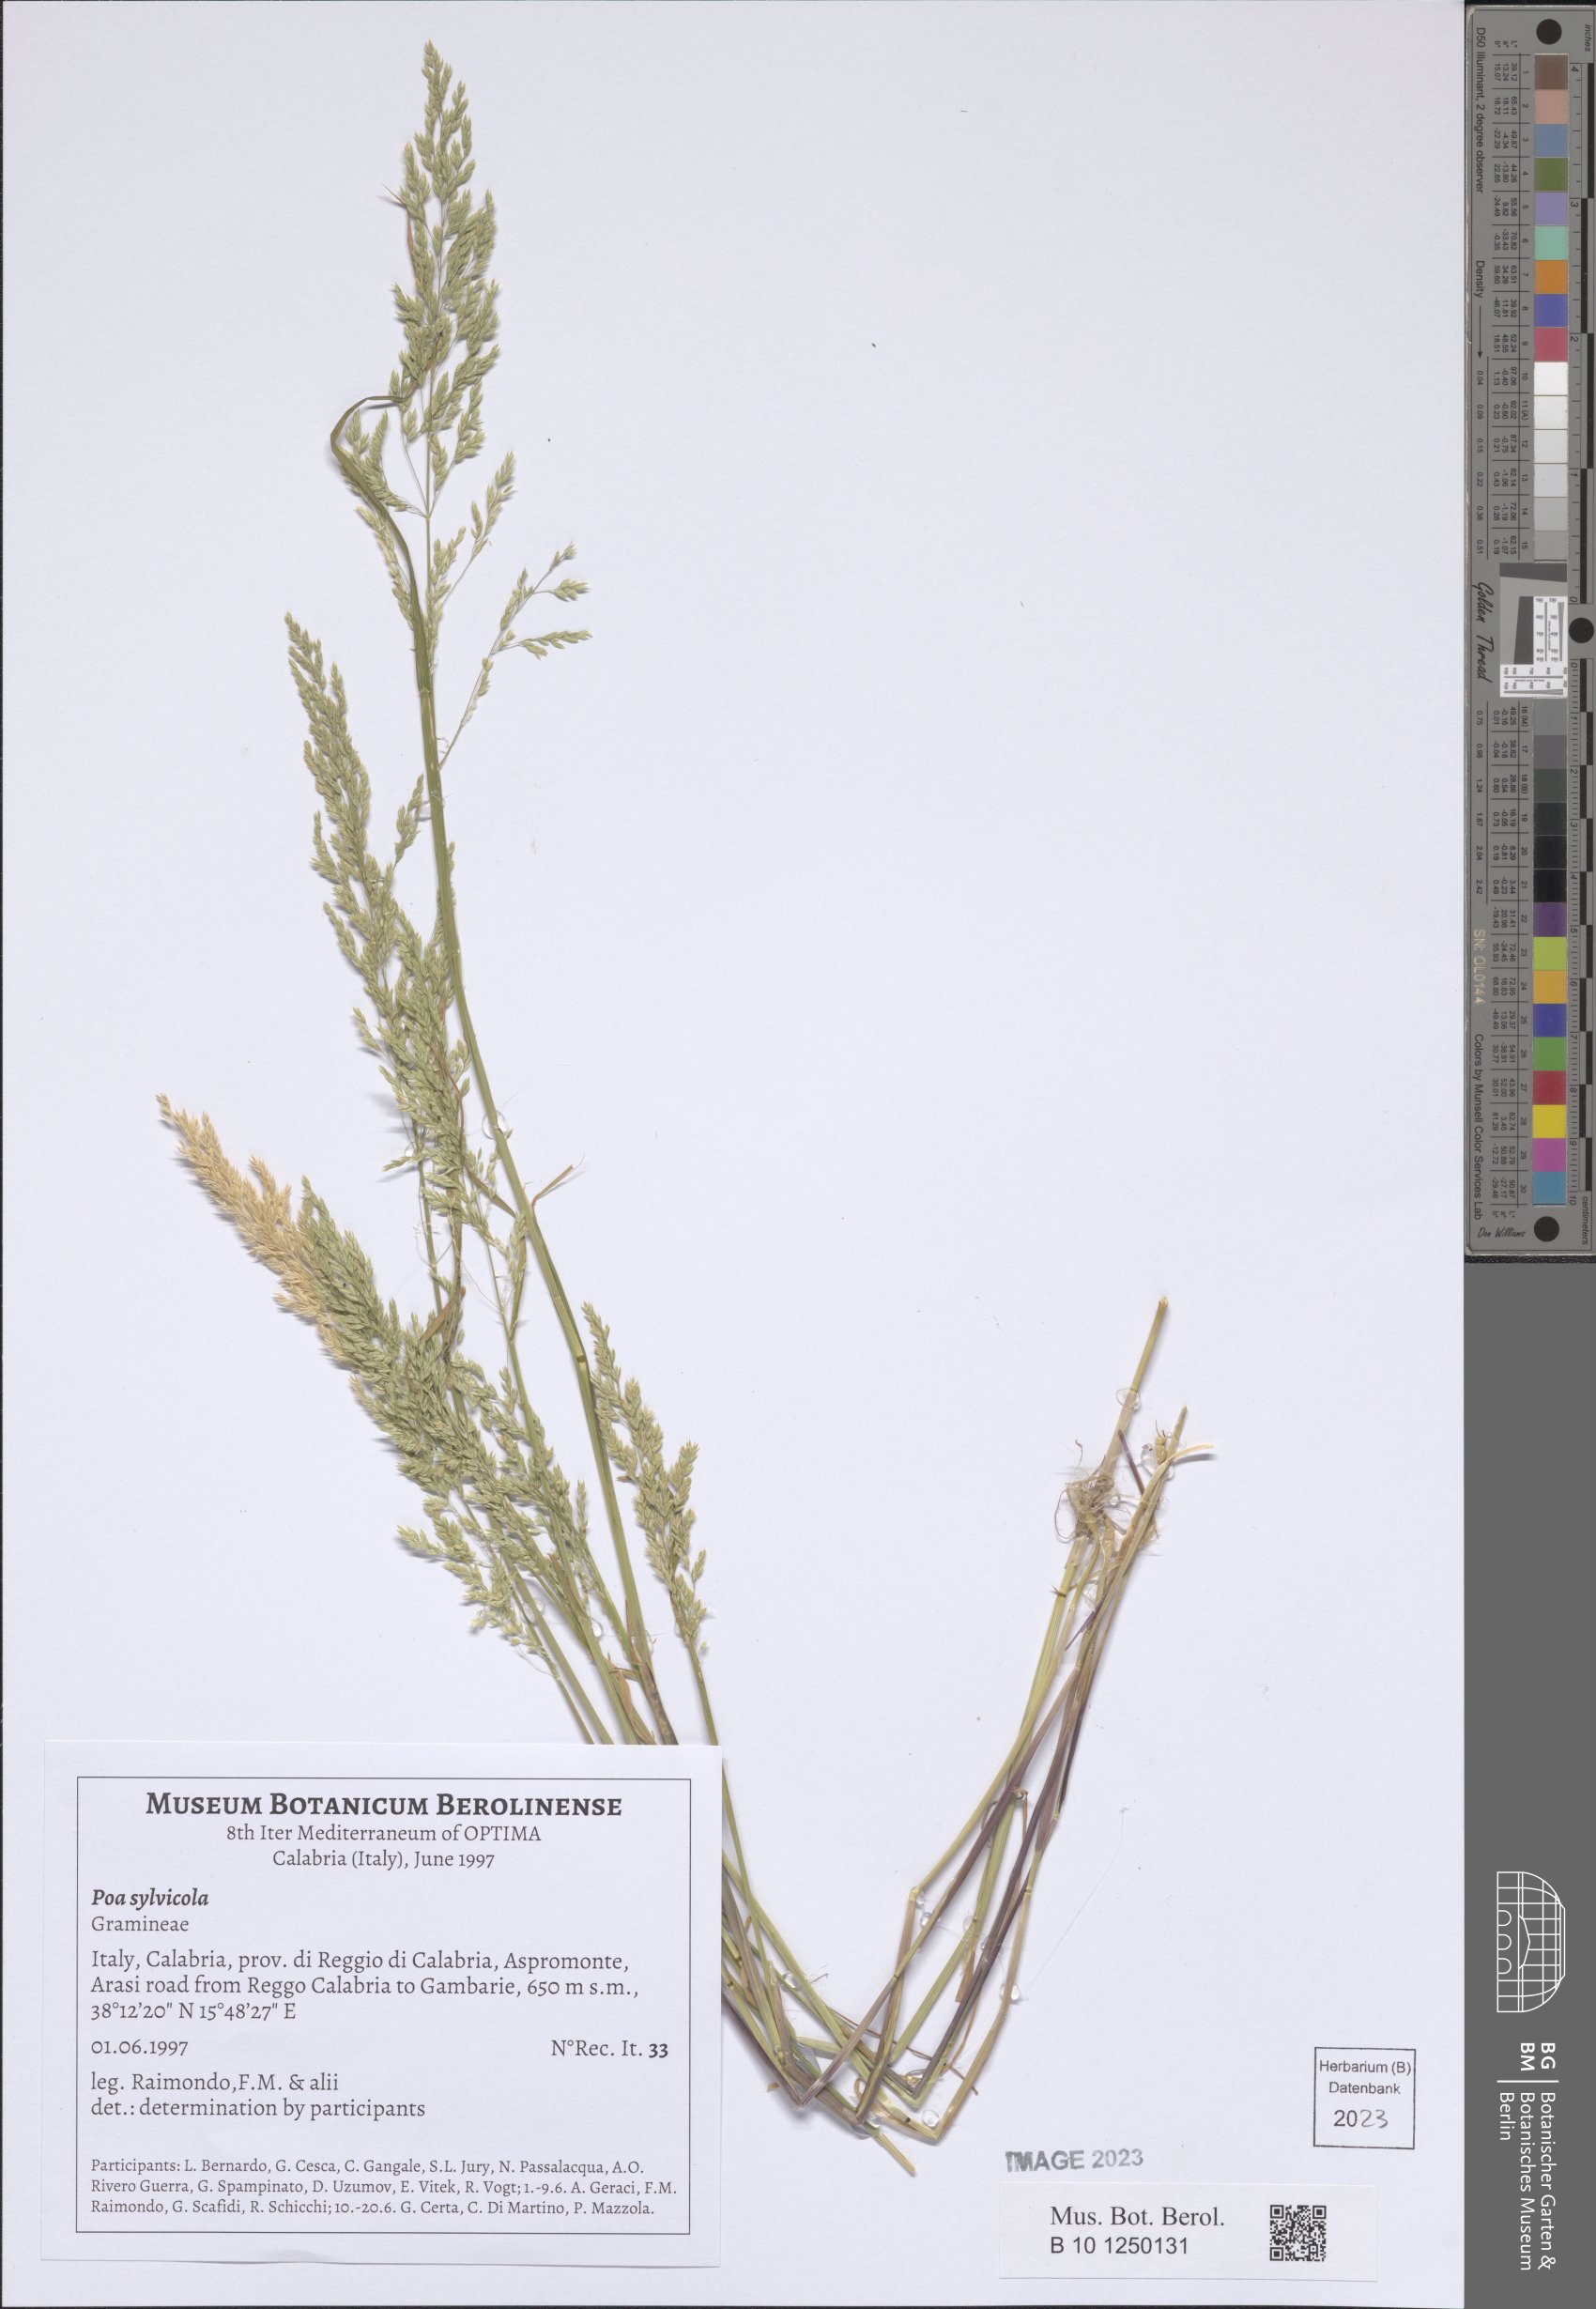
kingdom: Plantae
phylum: Tracheophyta
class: Liliopsida
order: Poales
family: Poaceae
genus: Poa
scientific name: Poa trivialis
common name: Rough bluegrass
